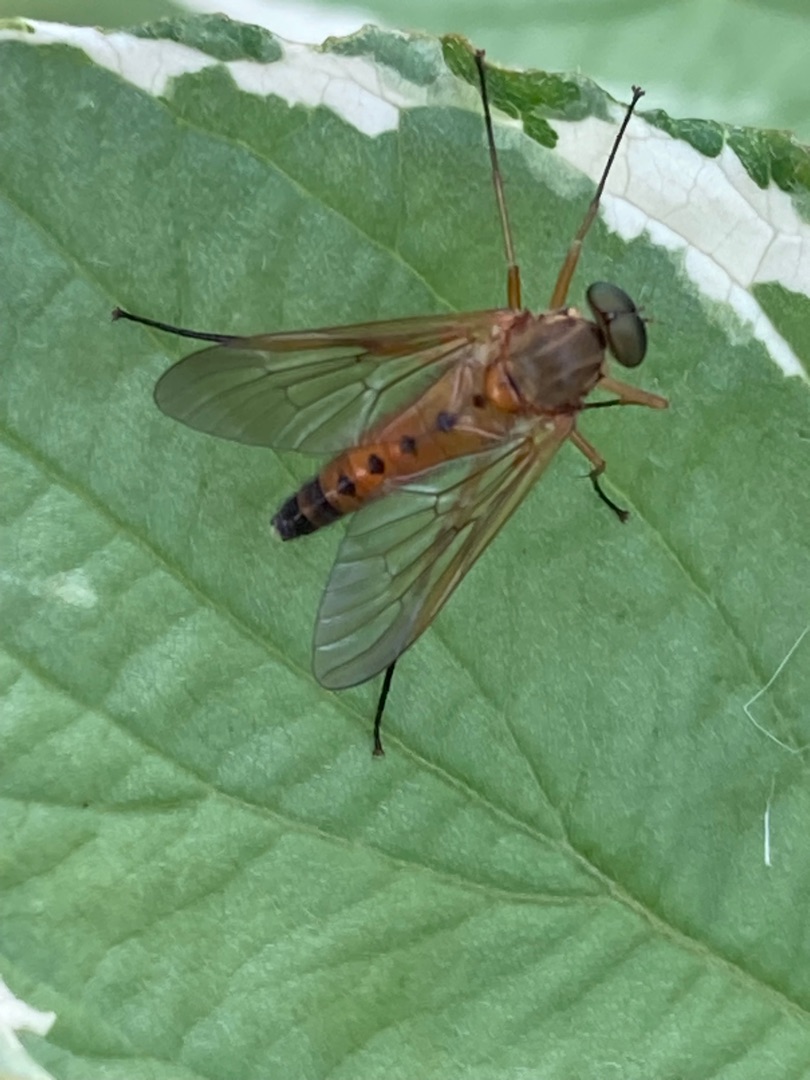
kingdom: Animalia
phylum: Arthropoda
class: Insecta
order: Diptera
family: Rhagionidae
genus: Rhagio
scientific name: Rhagio tringaria
